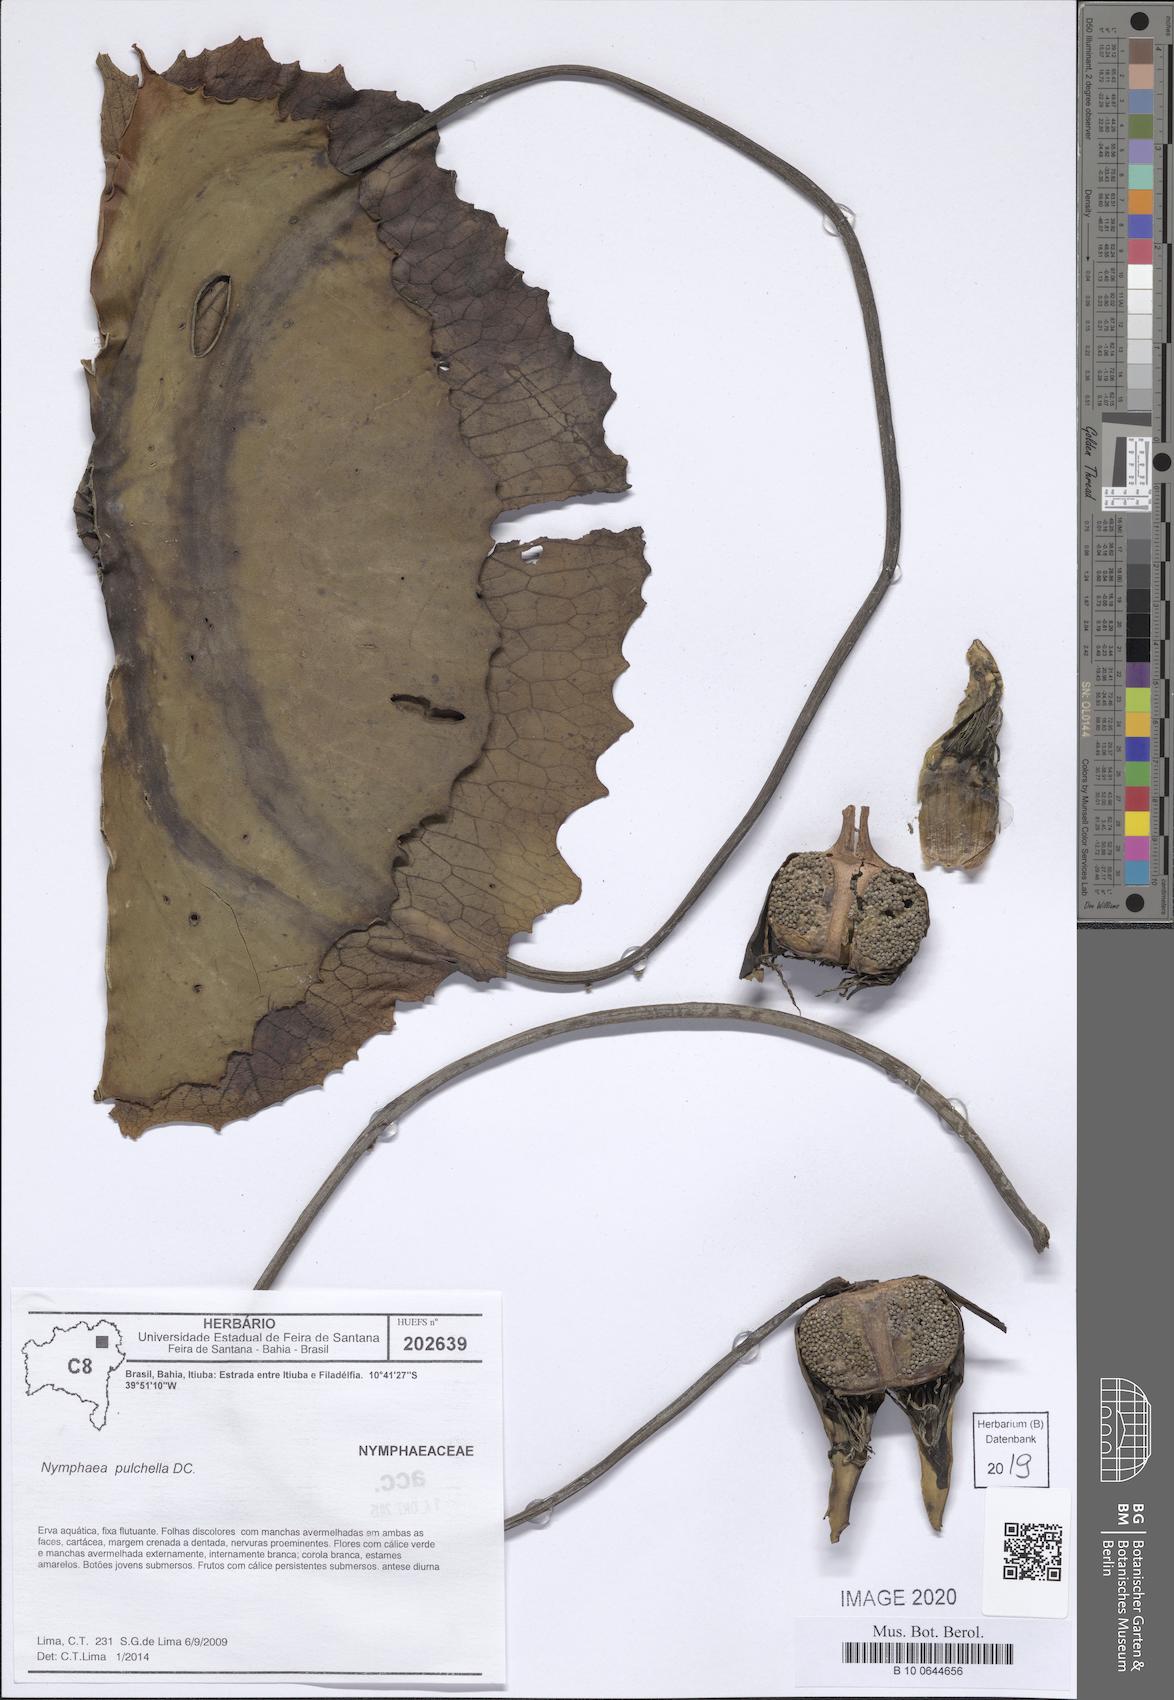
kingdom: Plantae
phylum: Tracheophyta
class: Magnoliopsida
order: Nymphaeales
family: Nymphaeaceae
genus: Nymphaea
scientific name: Nymphaea pulchella
